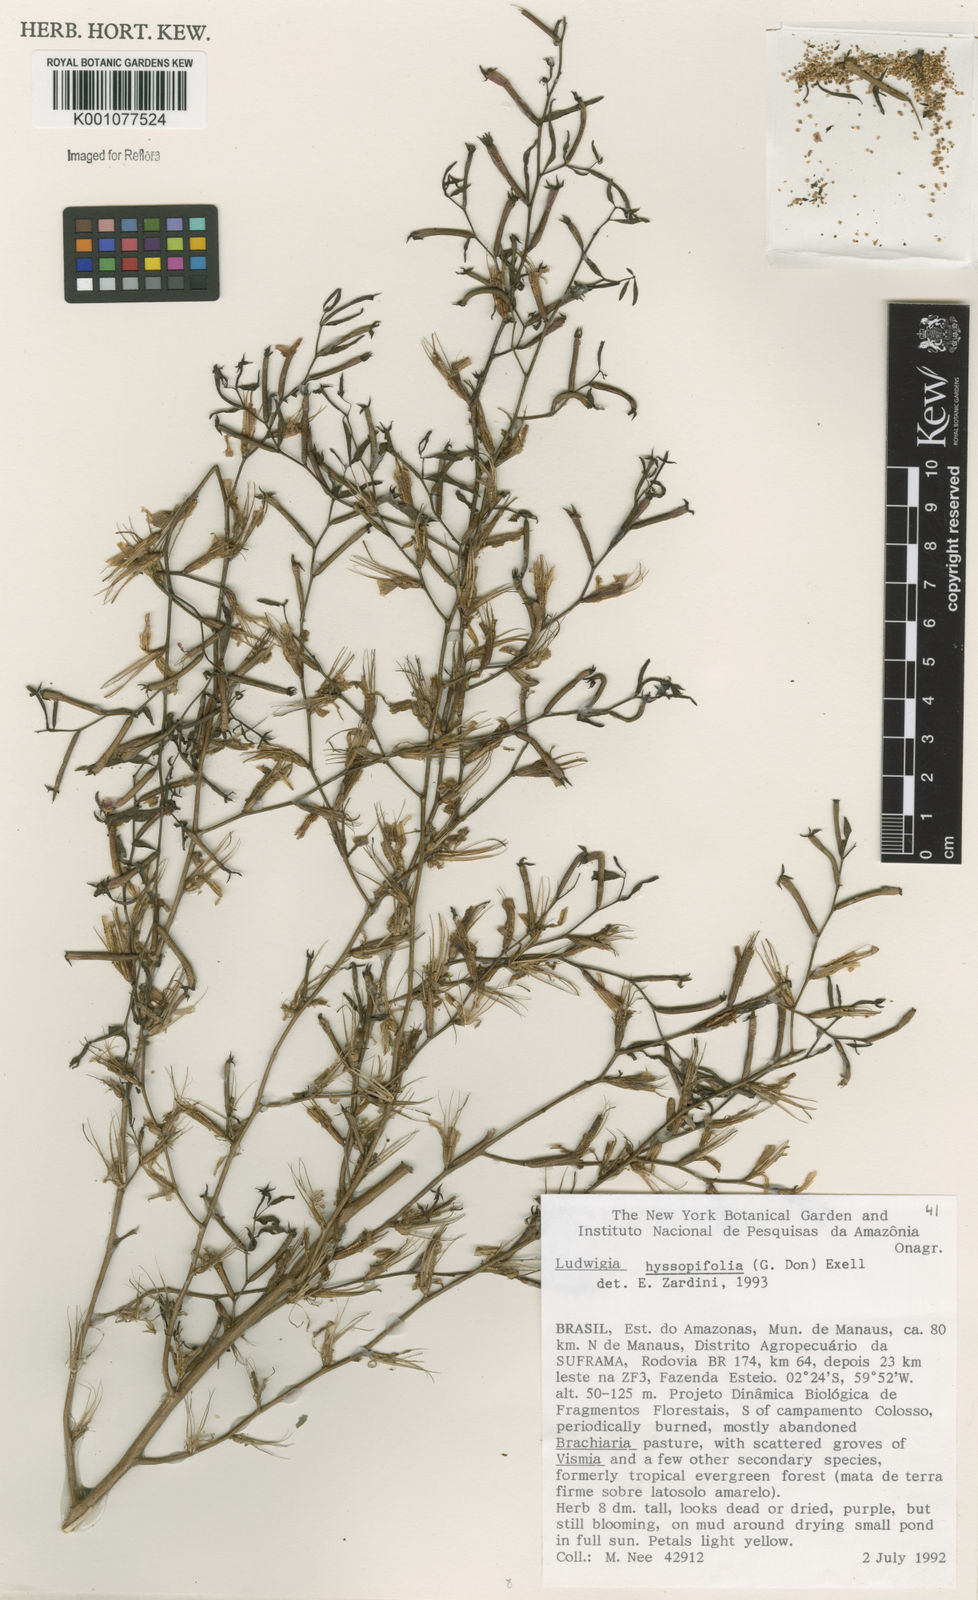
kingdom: Plantae
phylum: Tracheophyta
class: Magnoliopsida
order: Myrtales
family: Onagraceae
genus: Ludwigia
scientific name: Ludwigia hyssopifolia
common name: Linear leaf water primrose
